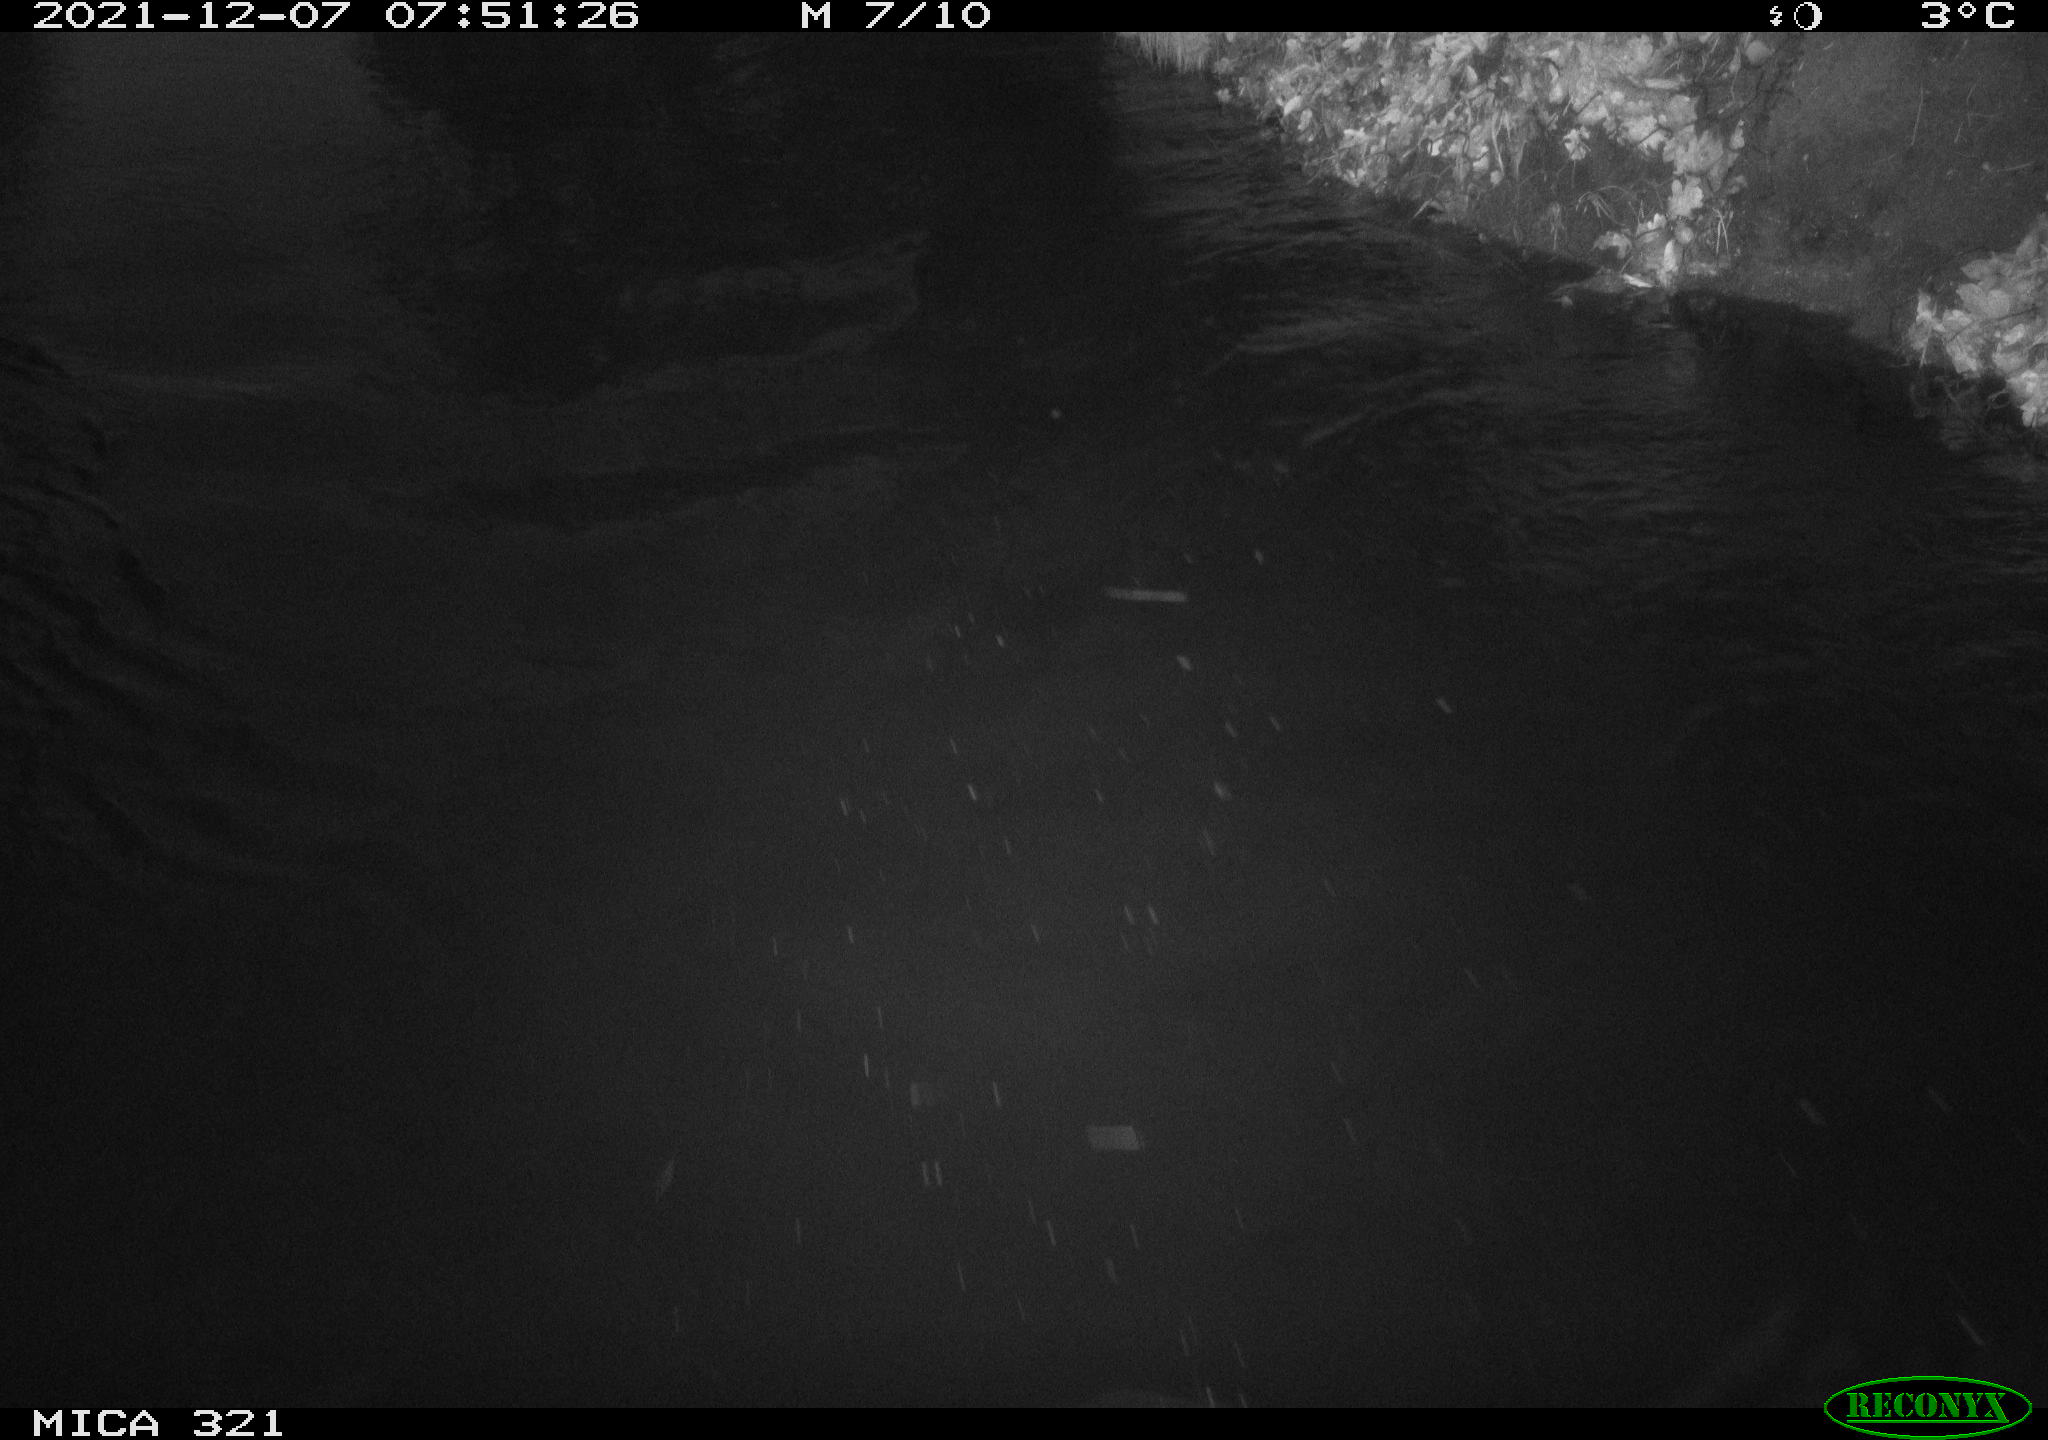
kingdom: Animalia
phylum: Chordata
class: Aves
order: Anseriformes
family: Anatidae
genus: Anas
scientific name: Anas platyrhynchos
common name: Mallard
